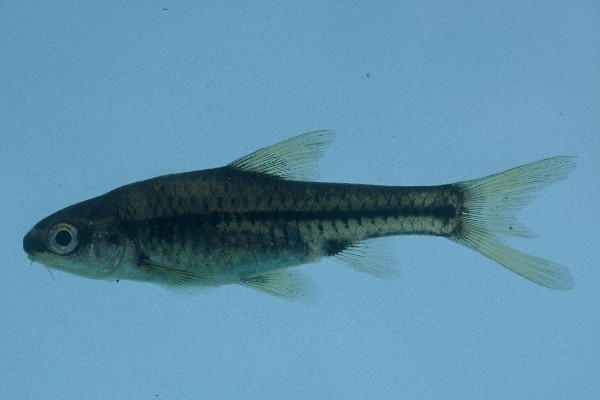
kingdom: Animalia
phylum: Chordata
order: Cypriniformes
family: Cyprinidae
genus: Barbus
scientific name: Barbus
